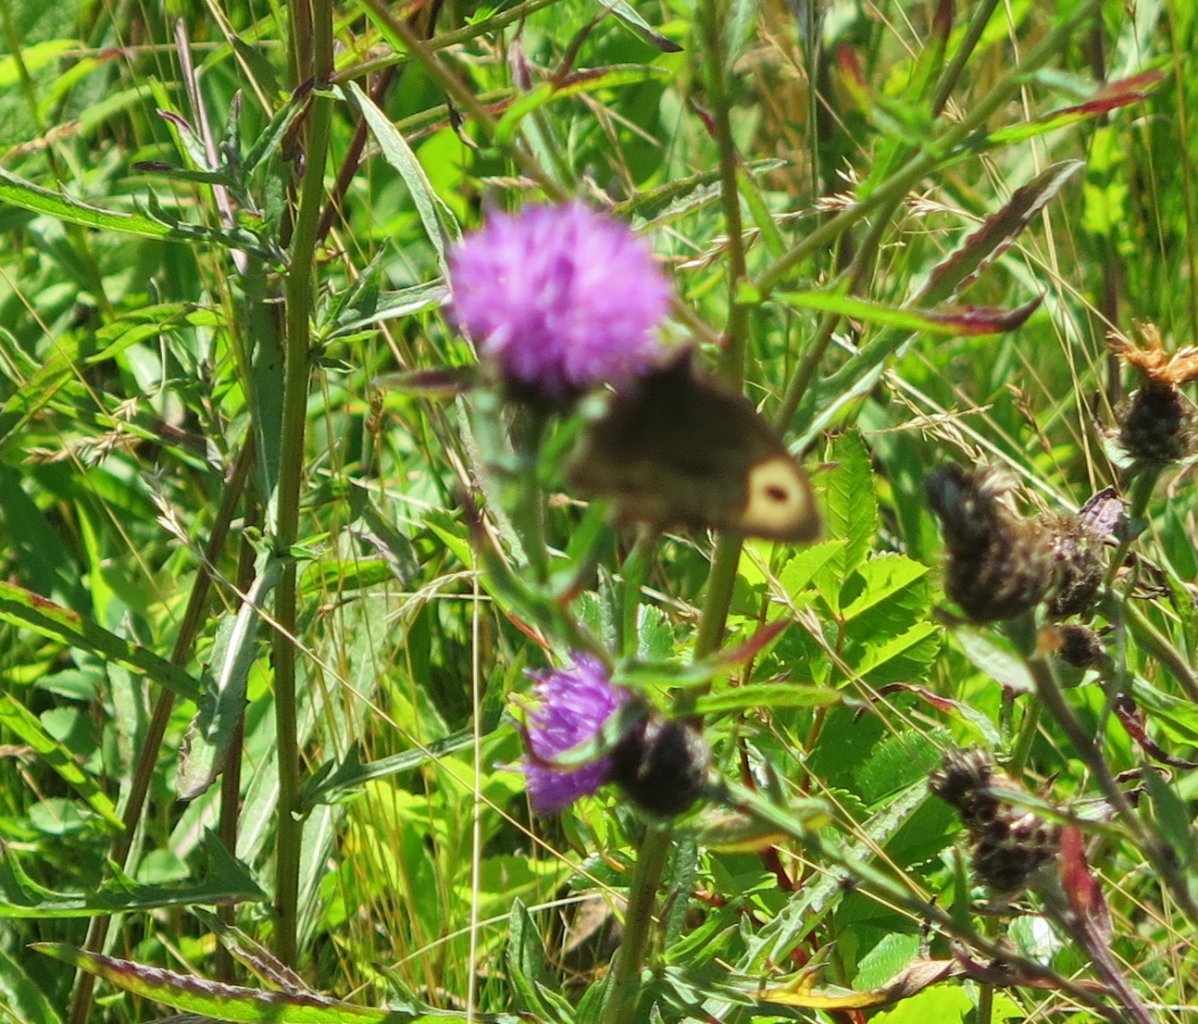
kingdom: Animalia
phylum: Arthropoda
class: Insecta
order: Lepidoptera
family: Nymphalidae
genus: Cercyonis
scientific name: Cercyonis pegala
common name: Common Wood-Nymph
